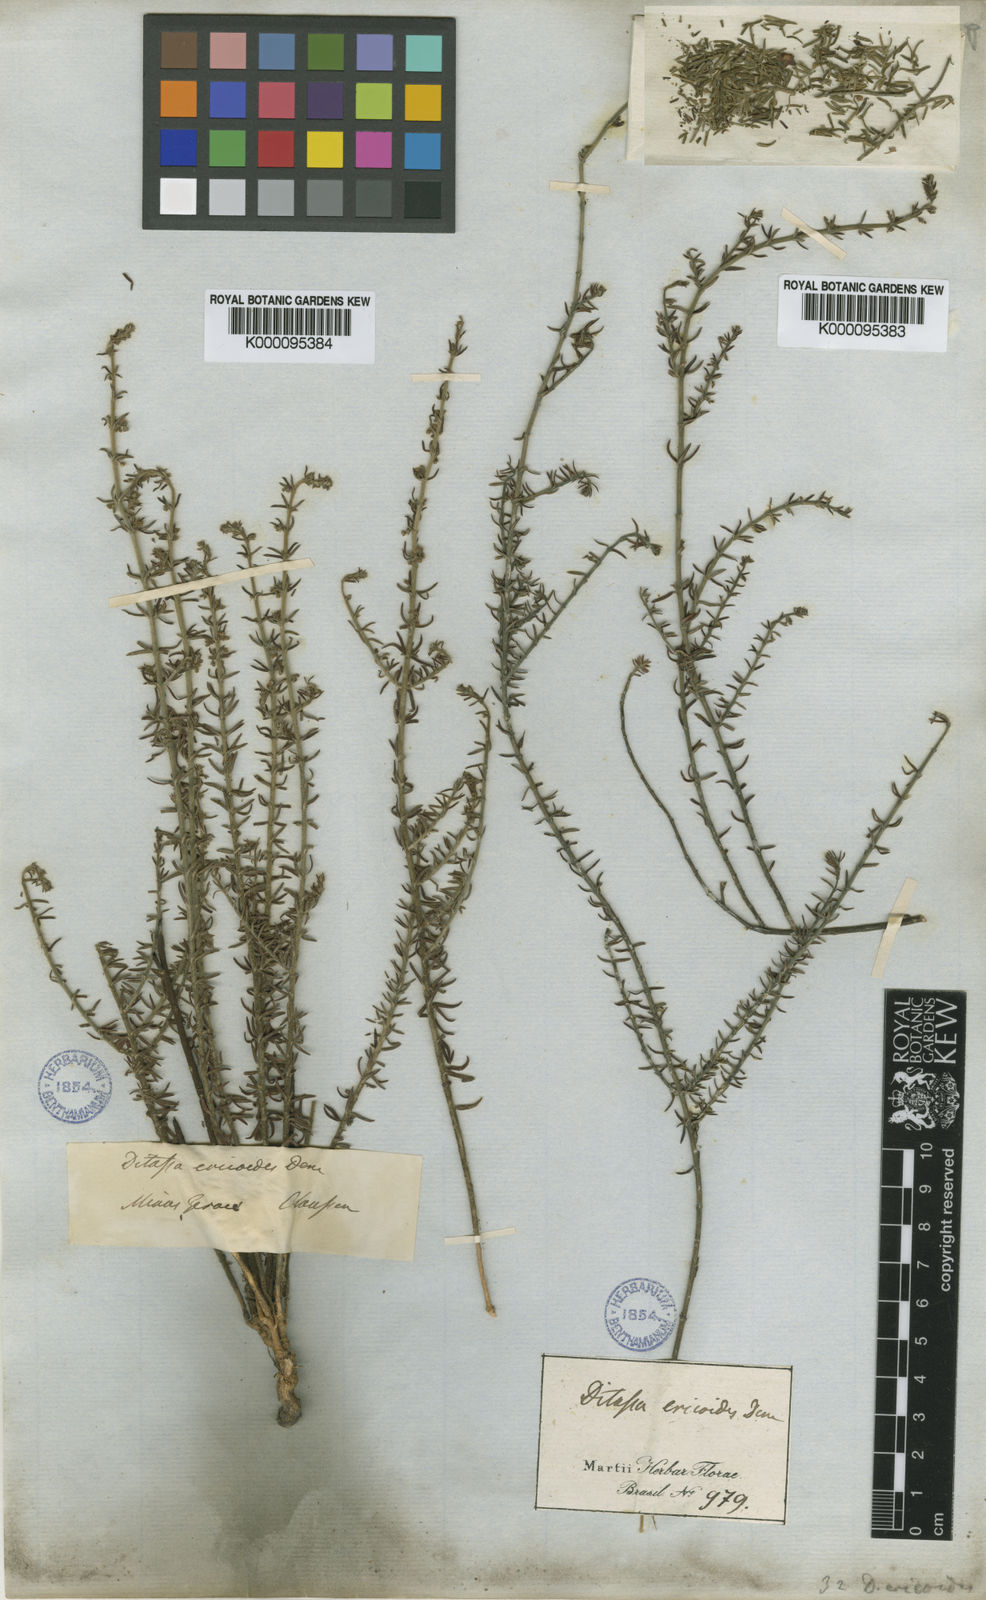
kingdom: Plantae
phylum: Tracheophyta
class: Magnoliopsida
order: Gentianales
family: Apocynaceae
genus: Minaria
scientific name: Minaria acerosa
